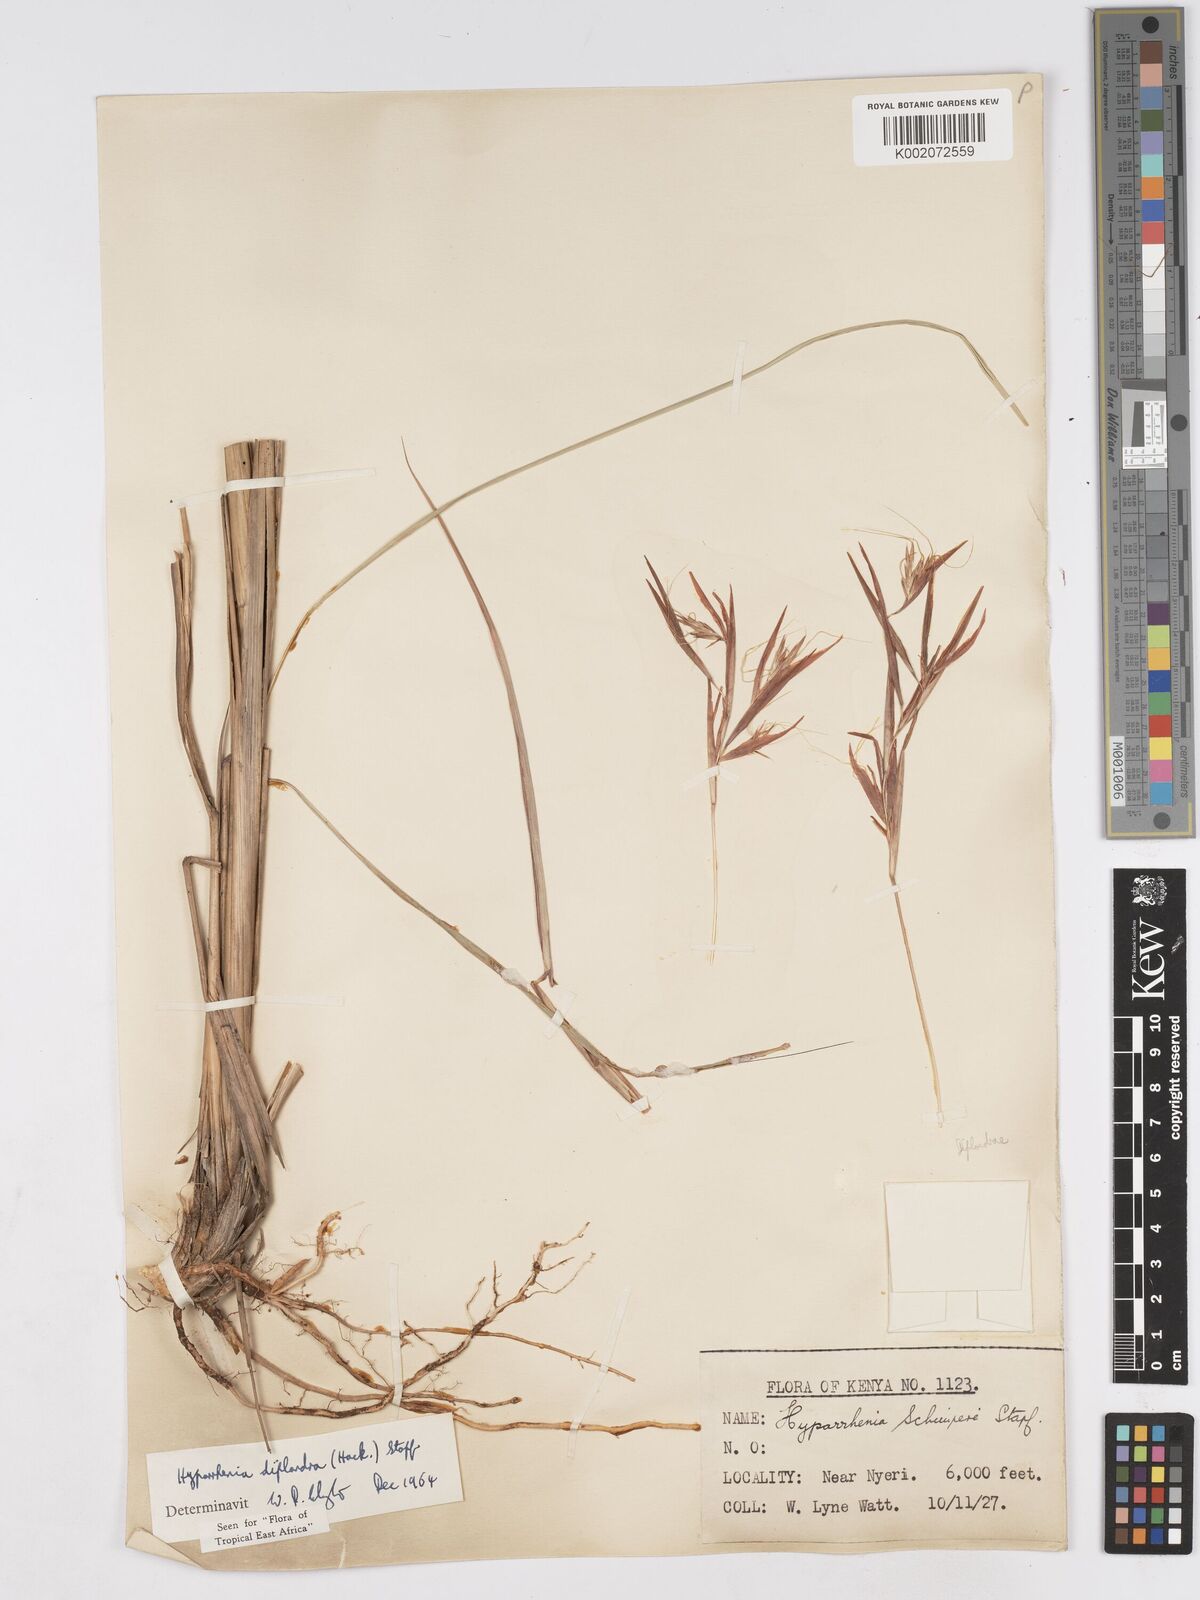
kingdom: Plantae
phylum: Tracheophyta
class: Liliopsida
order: Poales
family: Poaceae
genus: Hyparrhenia
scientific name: Hyparrhenia diplandra
